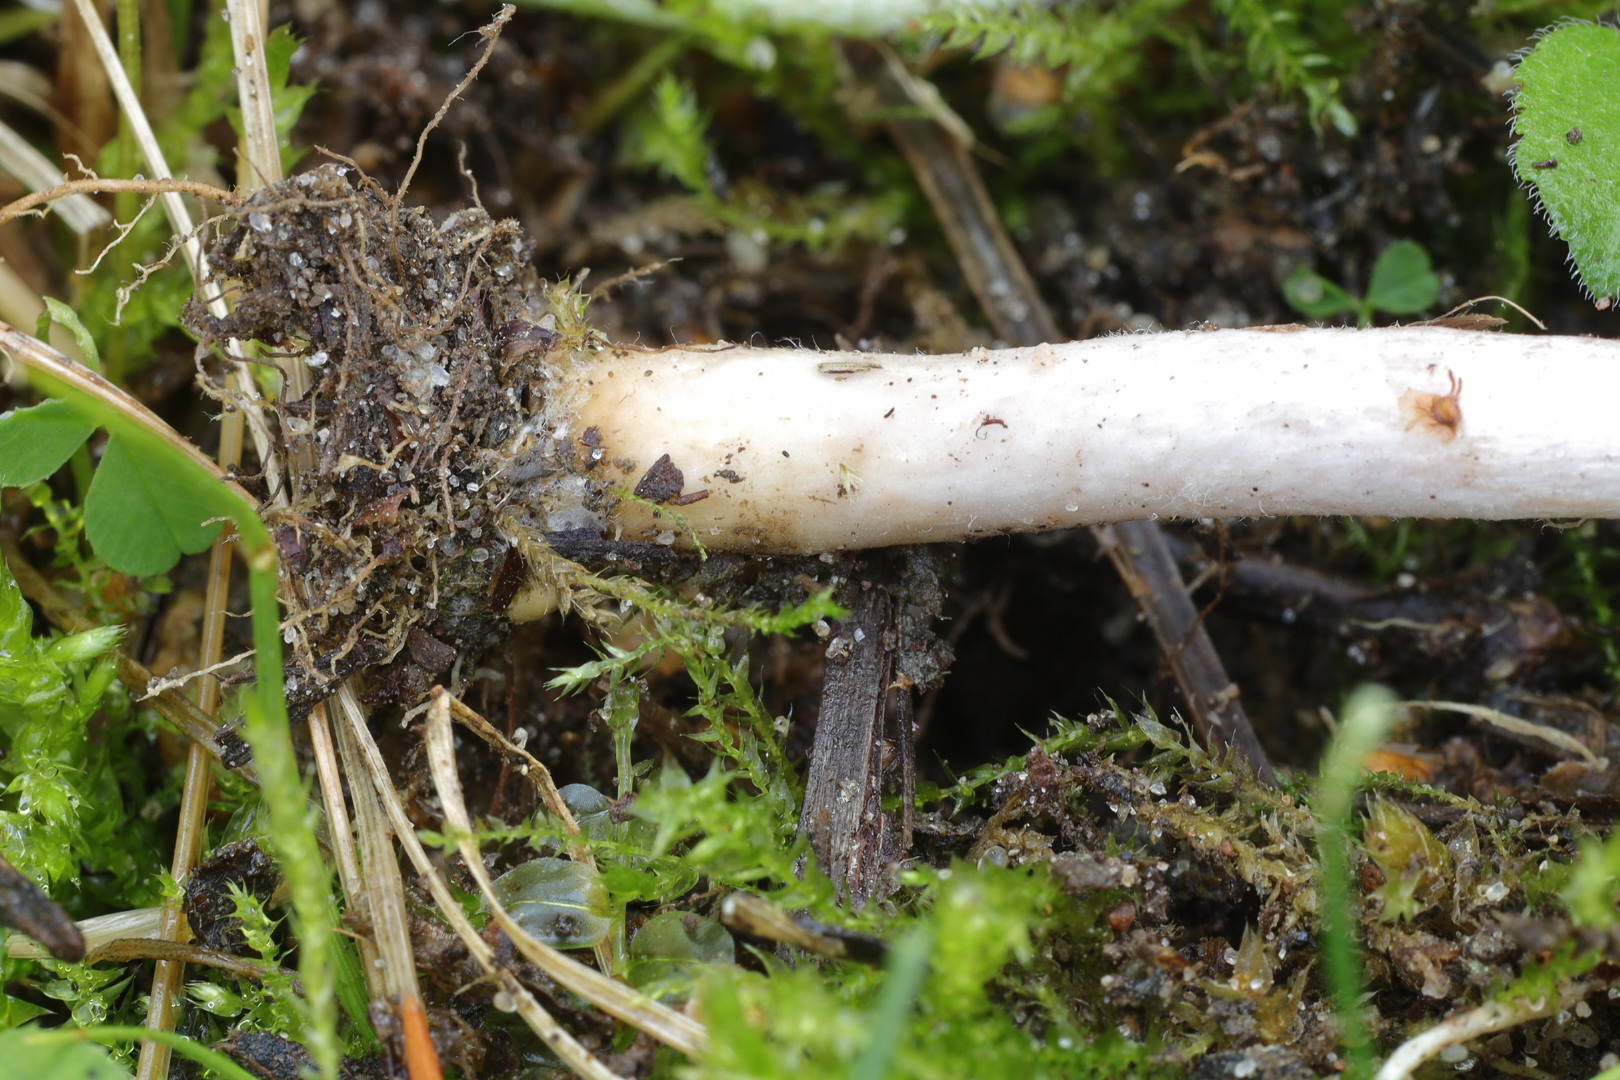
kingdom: Fungi
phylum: Basidiomycota
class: Agaricomycetes
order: Agaricales
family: Inocybaceae
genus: Inocybe
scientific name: Inocybe geophylla
